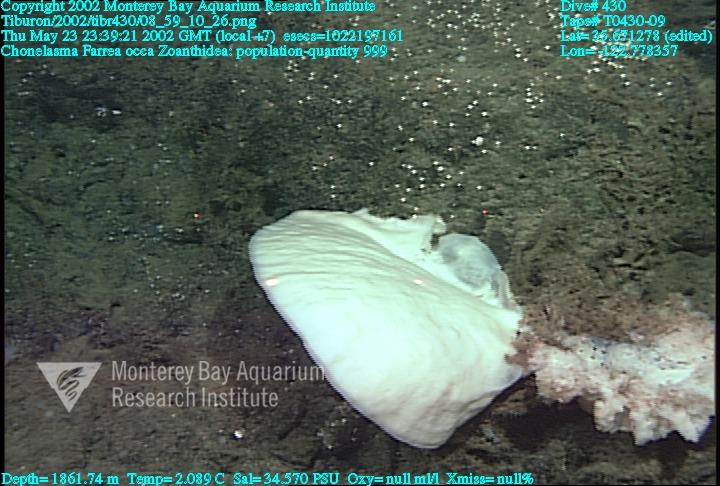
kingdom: Animalia
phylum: Porifera
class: Hexactinellida
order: Sceptrulophora
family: Euretidae
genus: Chonelasma
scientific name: Chonelasma
